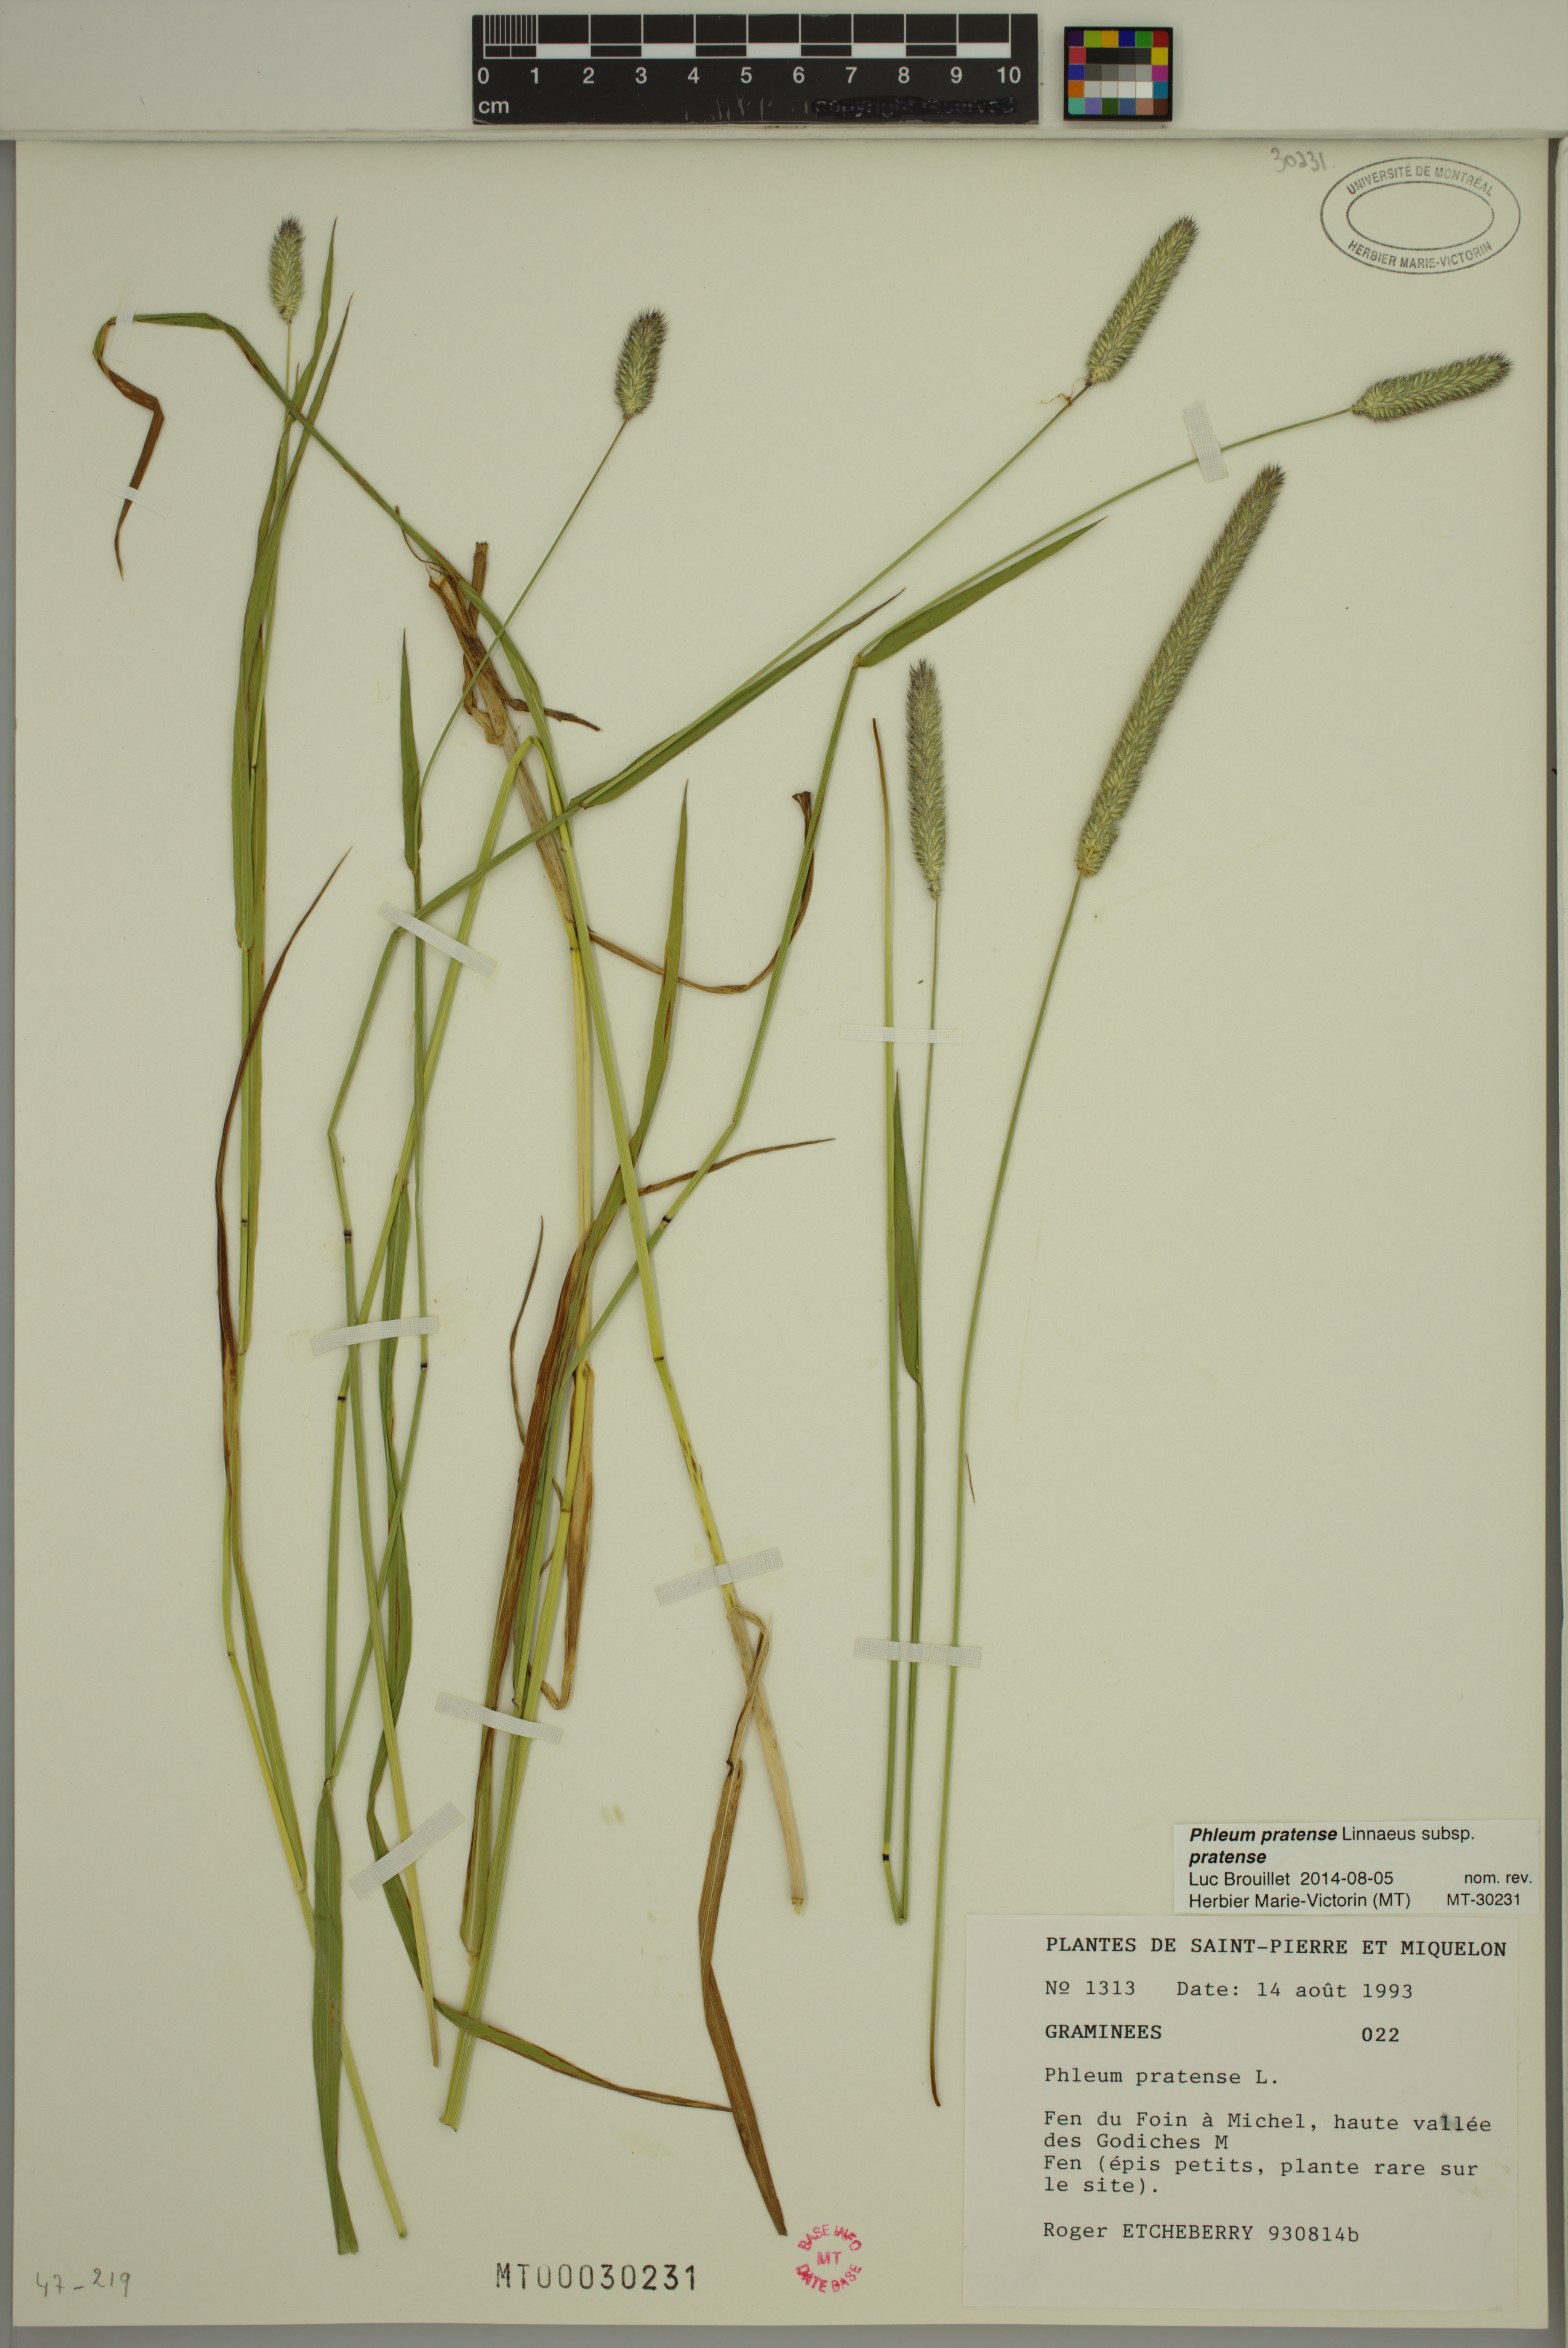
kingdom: Plantae
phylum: Tracheophyta
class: Liliopsida
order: Poales
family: Poaceae
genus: Phleum
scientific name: Phleum pratense
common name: Timothy grass
